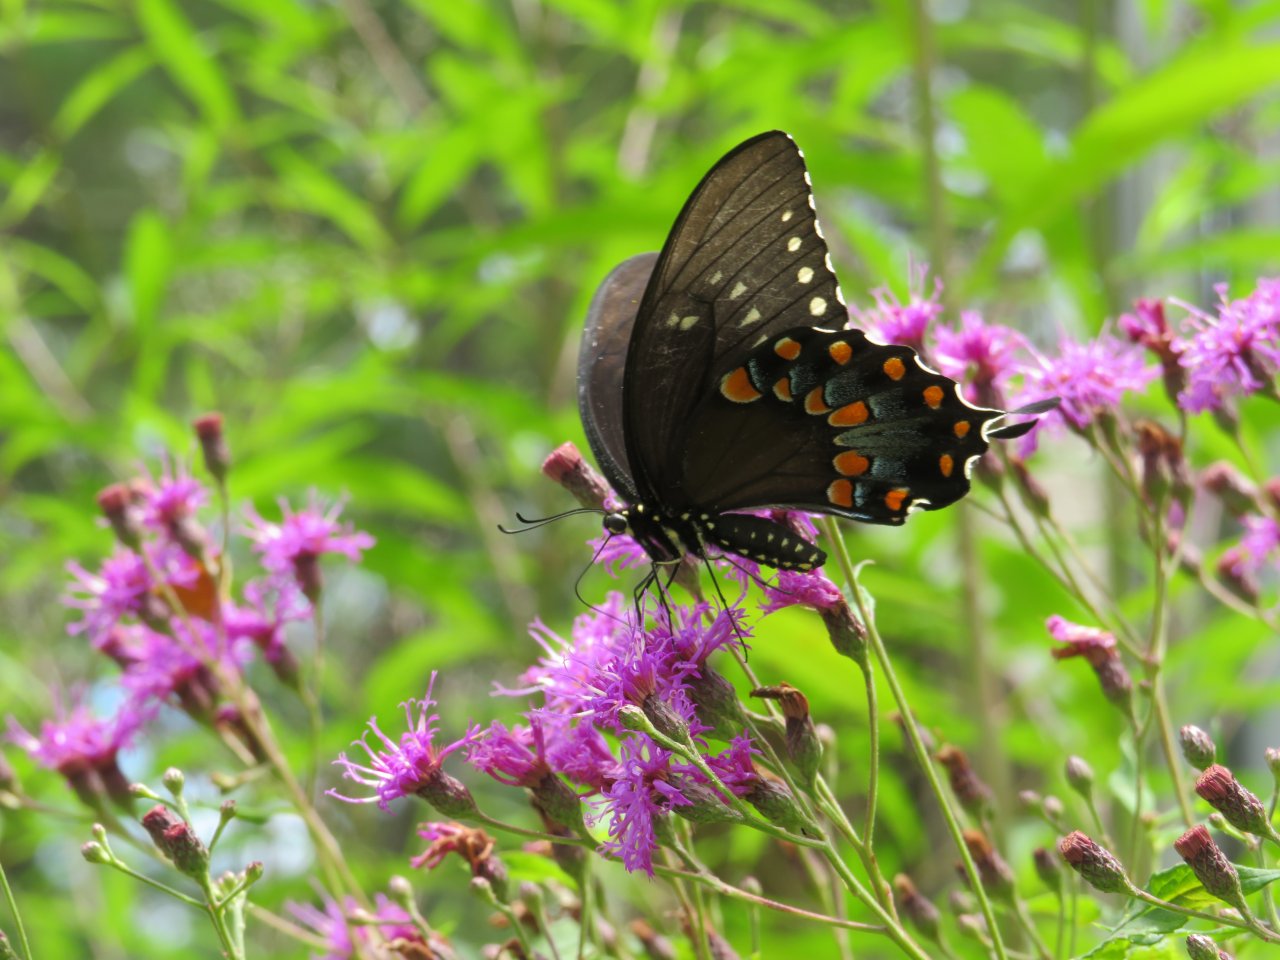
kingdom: Animalia
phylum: Arthropoda
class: Insecta
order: Lepidoptera
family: Papilionidae
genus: Pterourus
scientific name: Pterourus troilus
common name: Spicebush Swallowtail
